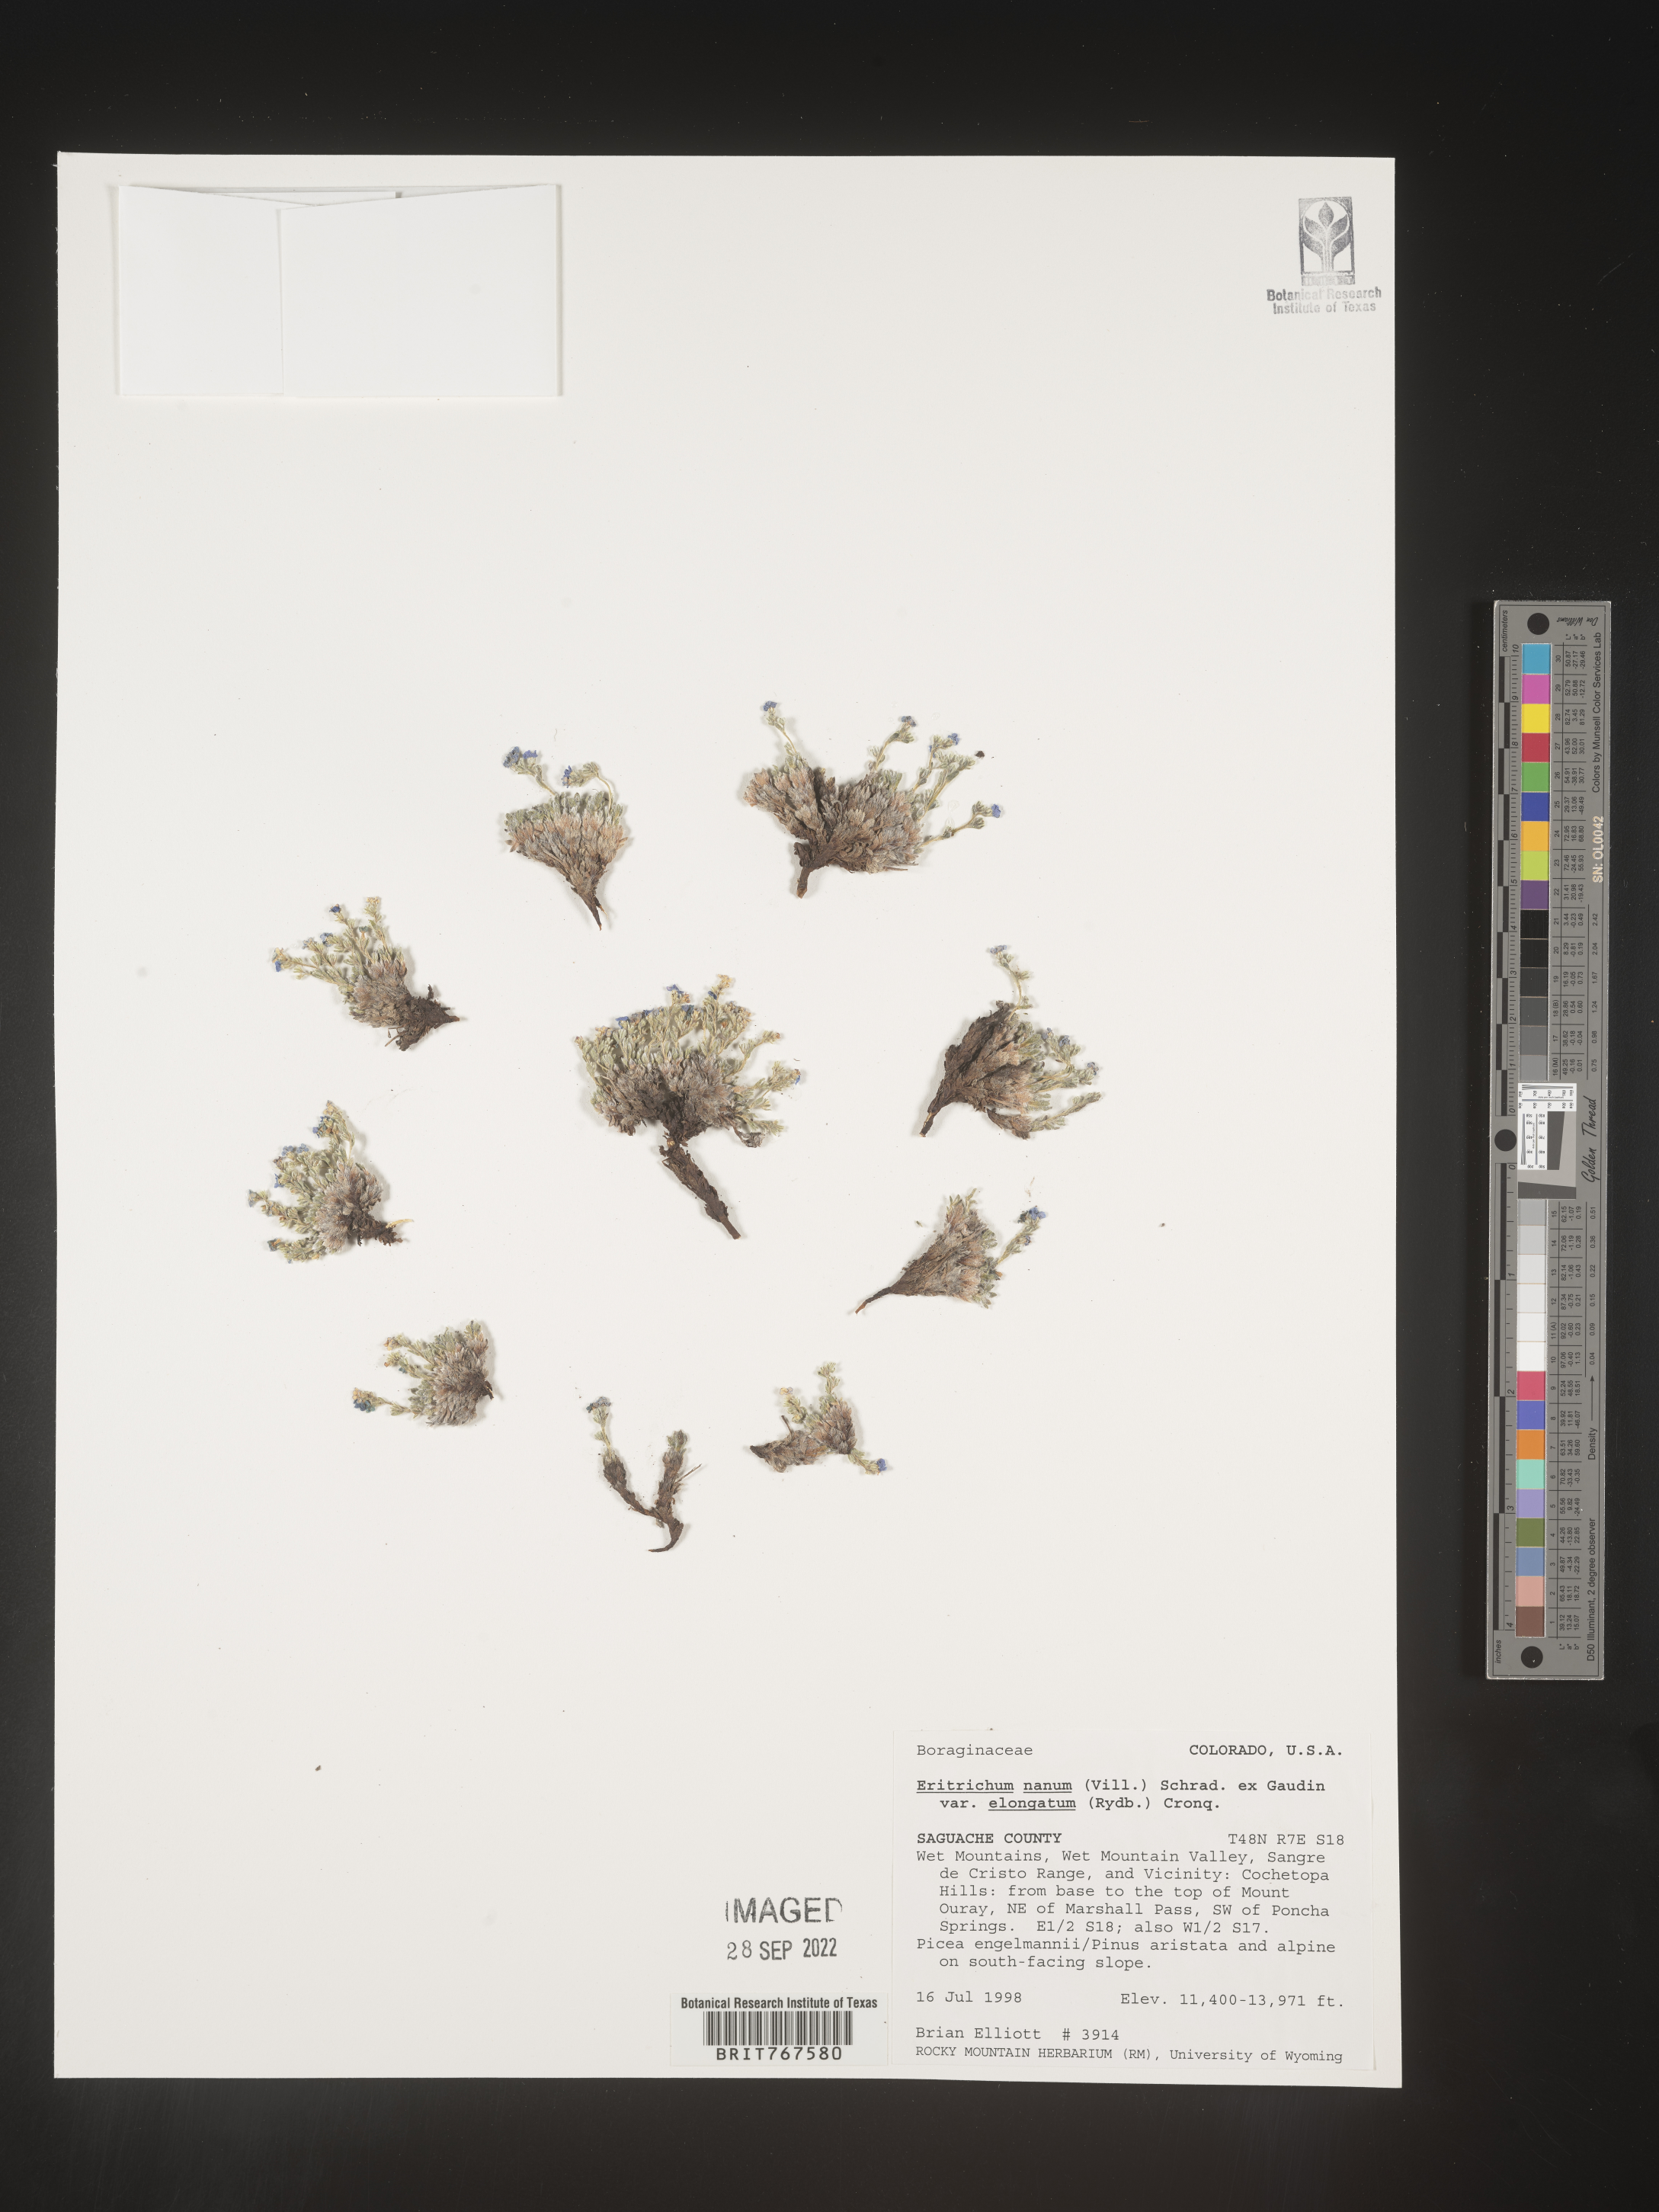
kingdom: Plantae
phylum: Tracheophyta
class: Magnoliopsida
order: Boraginales
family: Boraginaceae
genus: Eritrichium
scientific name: Eritrichium
